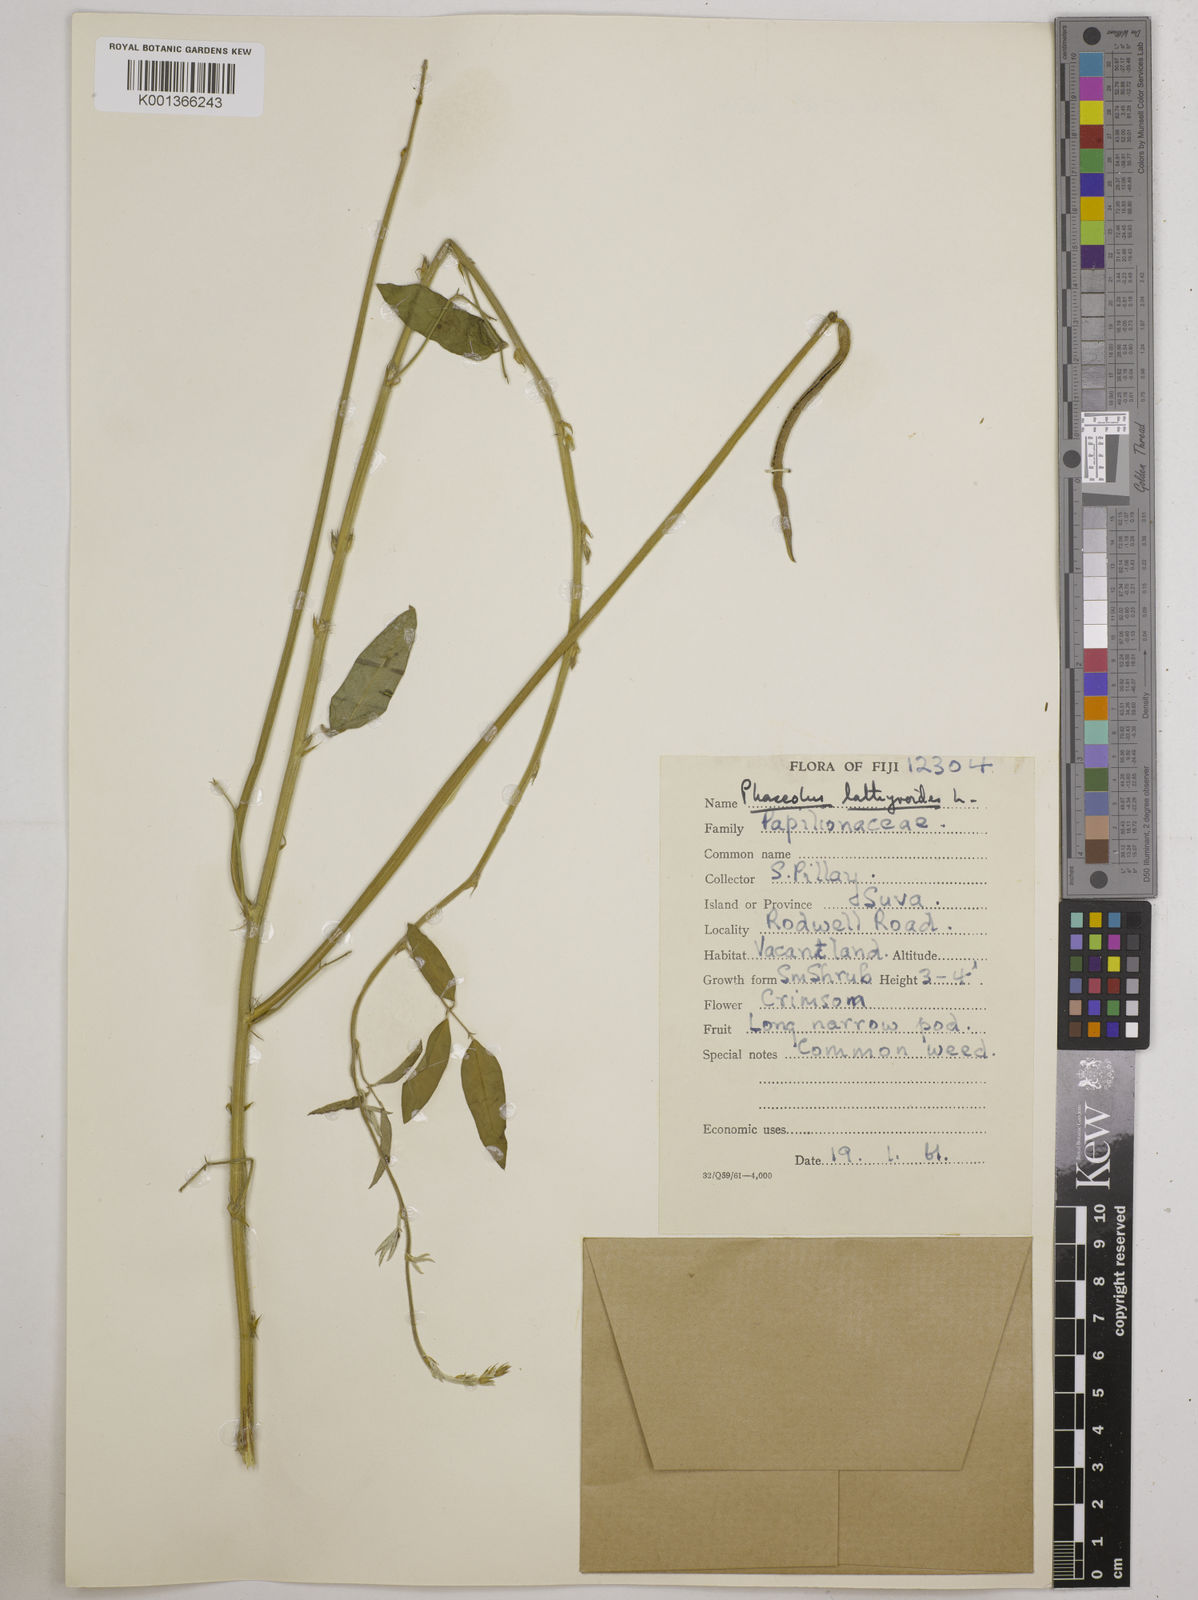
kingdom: Plantae
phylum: Tracheophyta
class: Magnoliopsida
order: Fabales
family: Fabaceae
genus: Macroptilium
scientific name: Macroptilium lathyroides
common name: Wild bushbean
